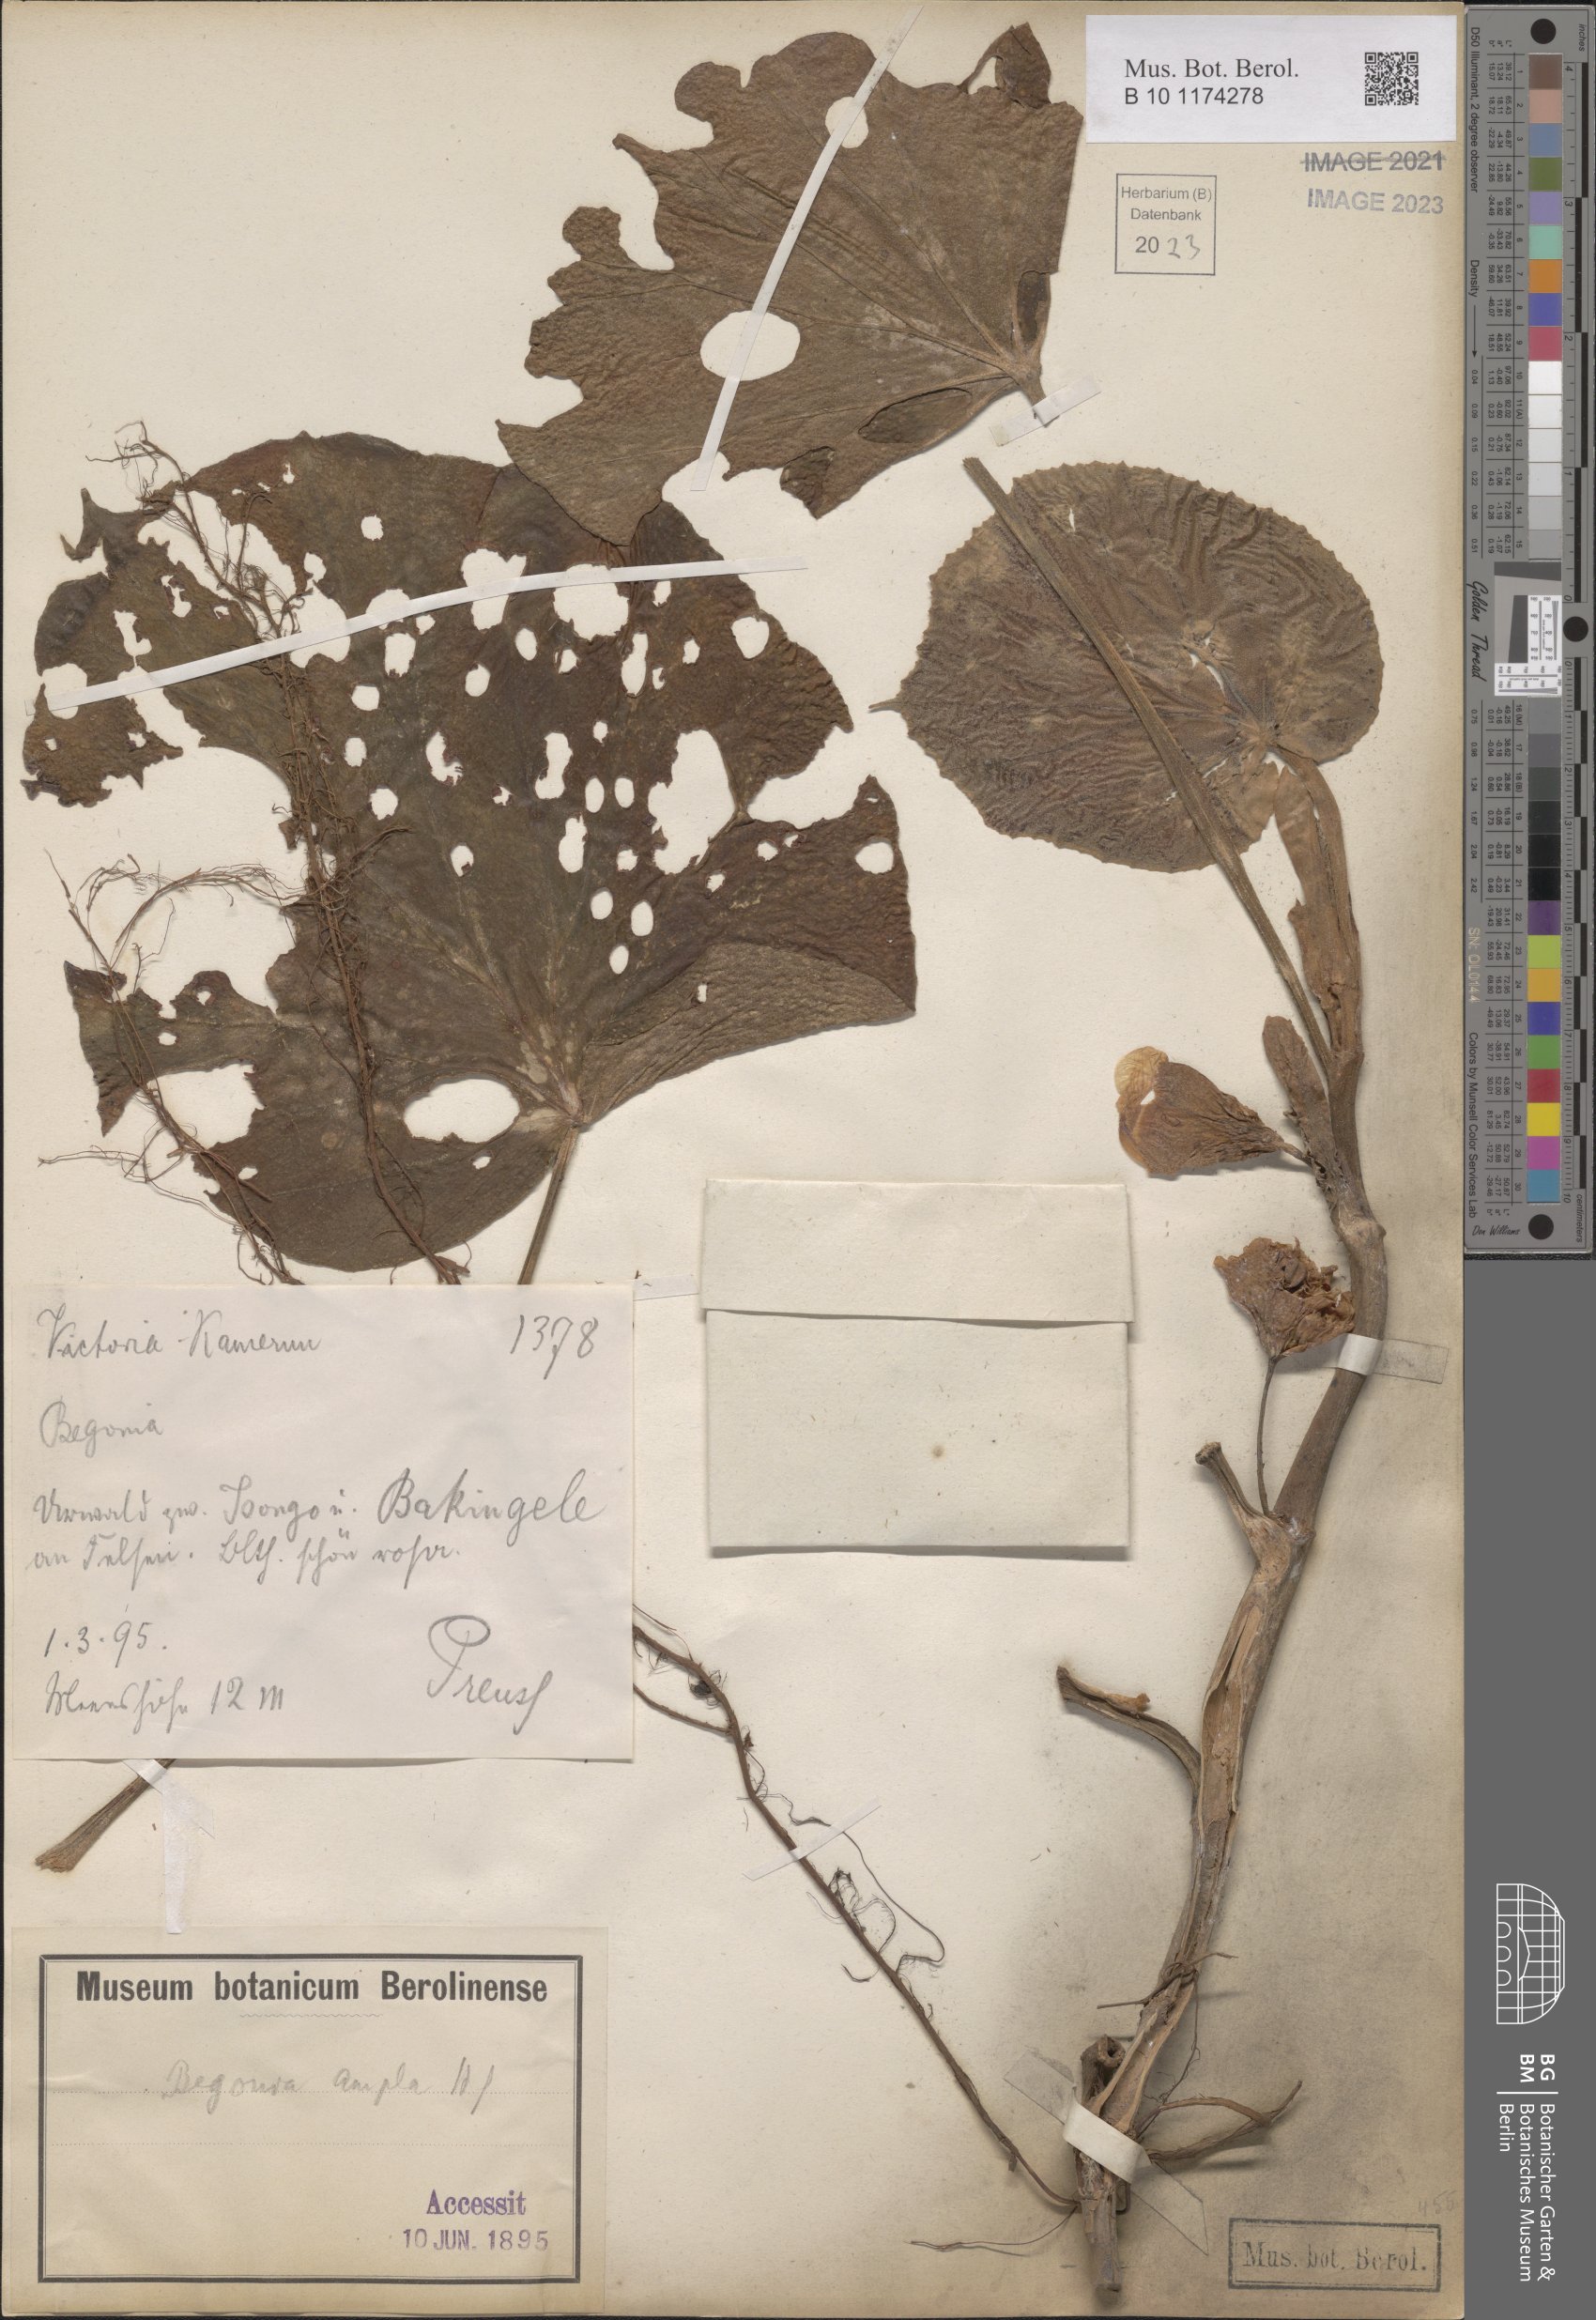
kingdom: Plantae
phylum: Tracheophyta
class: Magnoliopsida
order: Cucurbitales
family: Begoniaceae
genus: Begonia
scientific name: Begonia ampla
